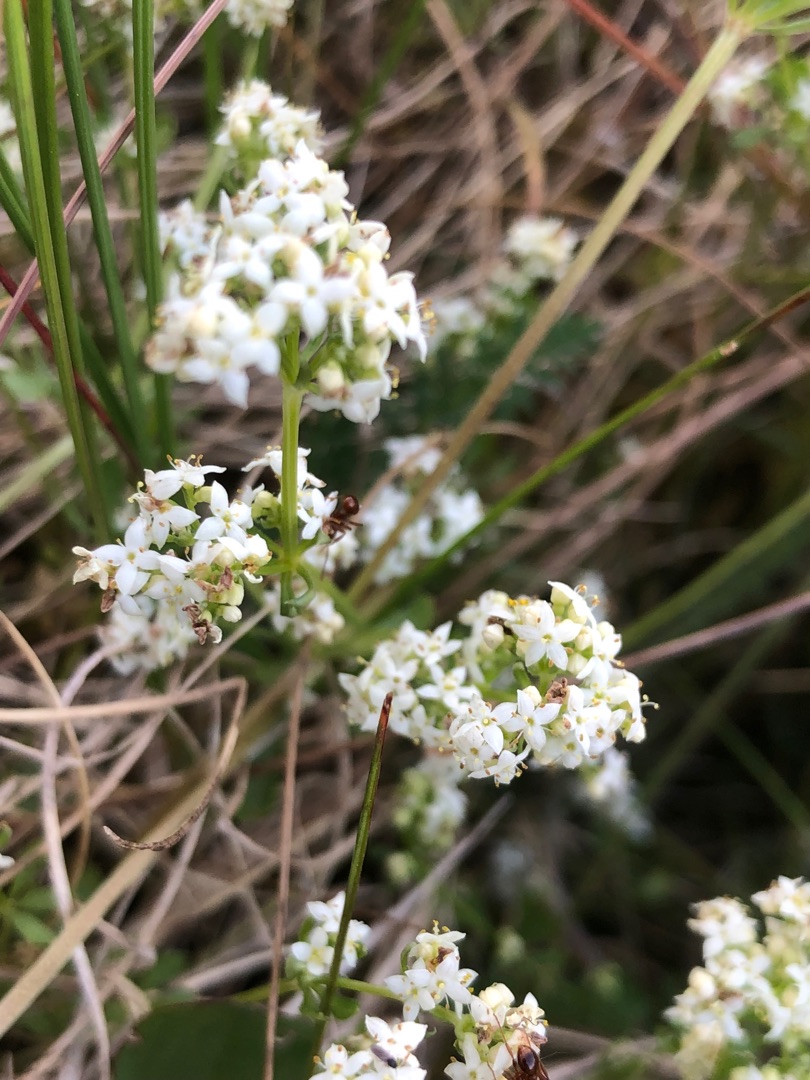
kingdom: Plantae
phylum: Tracheophyta
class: Magnoliopsida
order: Gentianales
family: Rubiaceae
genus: Galium
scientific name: Galium saxatile
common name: Lyng-snerre
